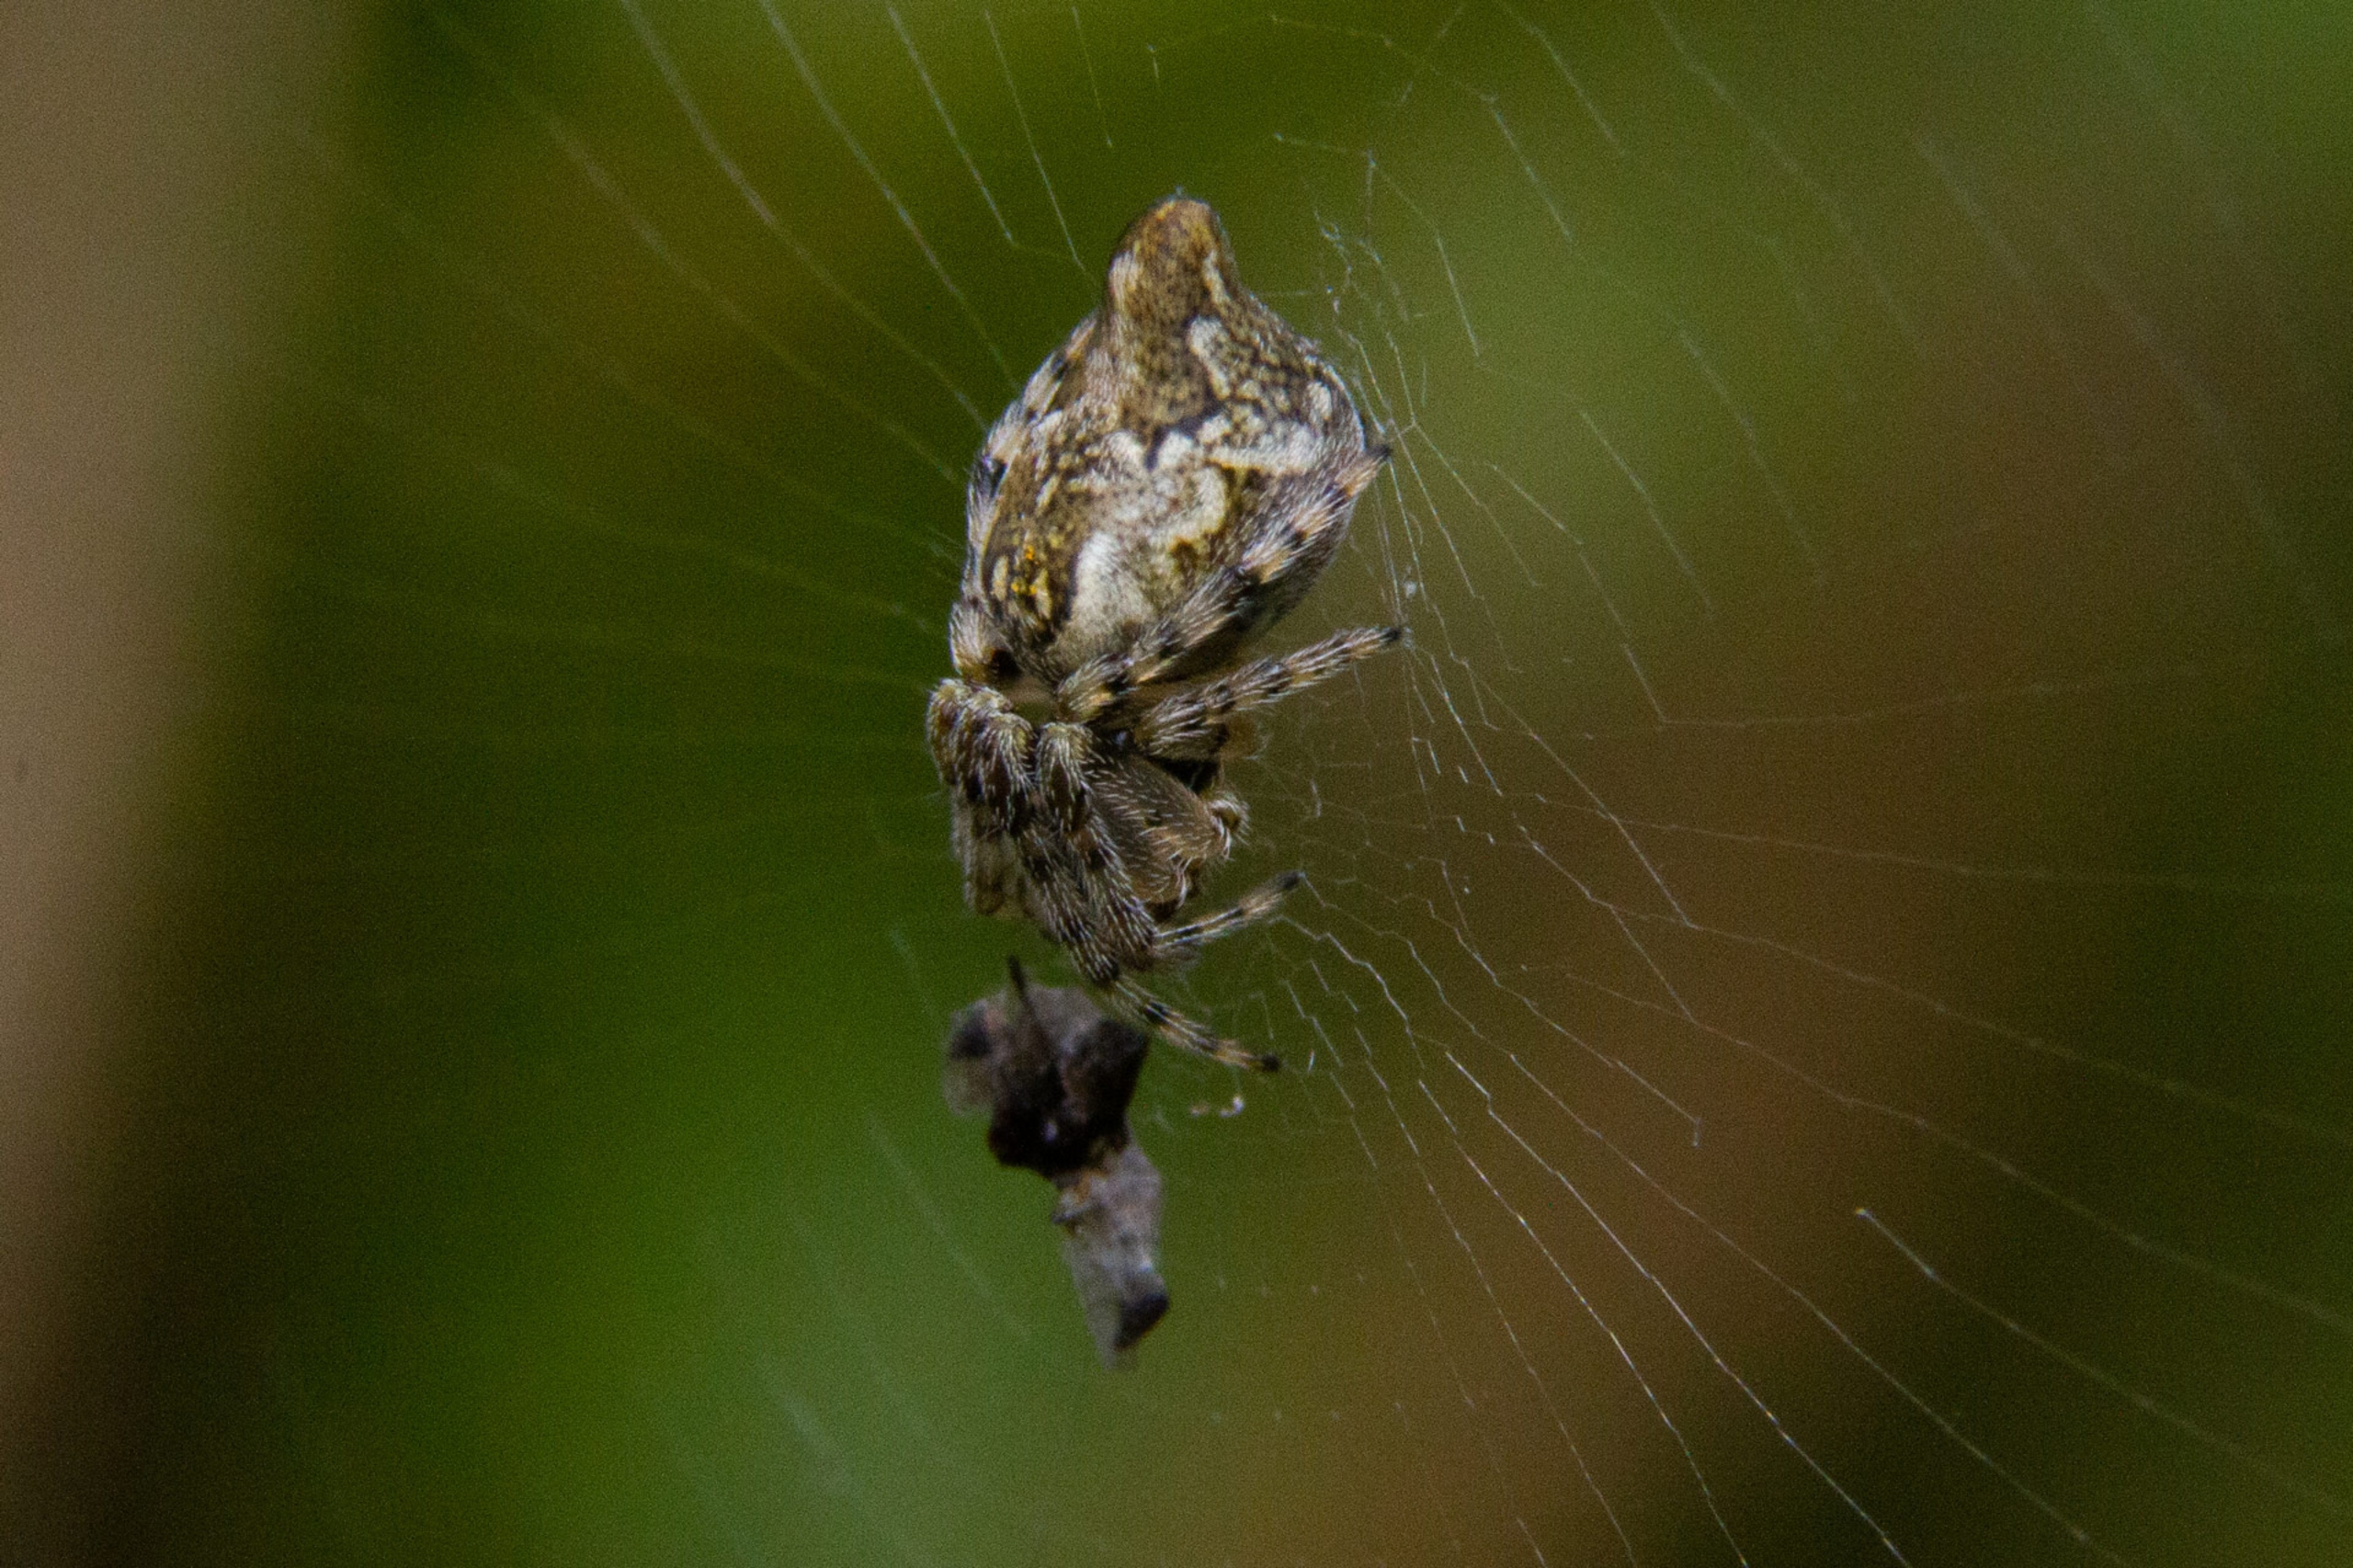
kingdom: Animalia
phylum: Arthropoda
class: Arachnida
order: Araneae
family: Araneidae
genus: Cyclosa
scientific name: Cyclosa conica
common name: Keglerumpe
